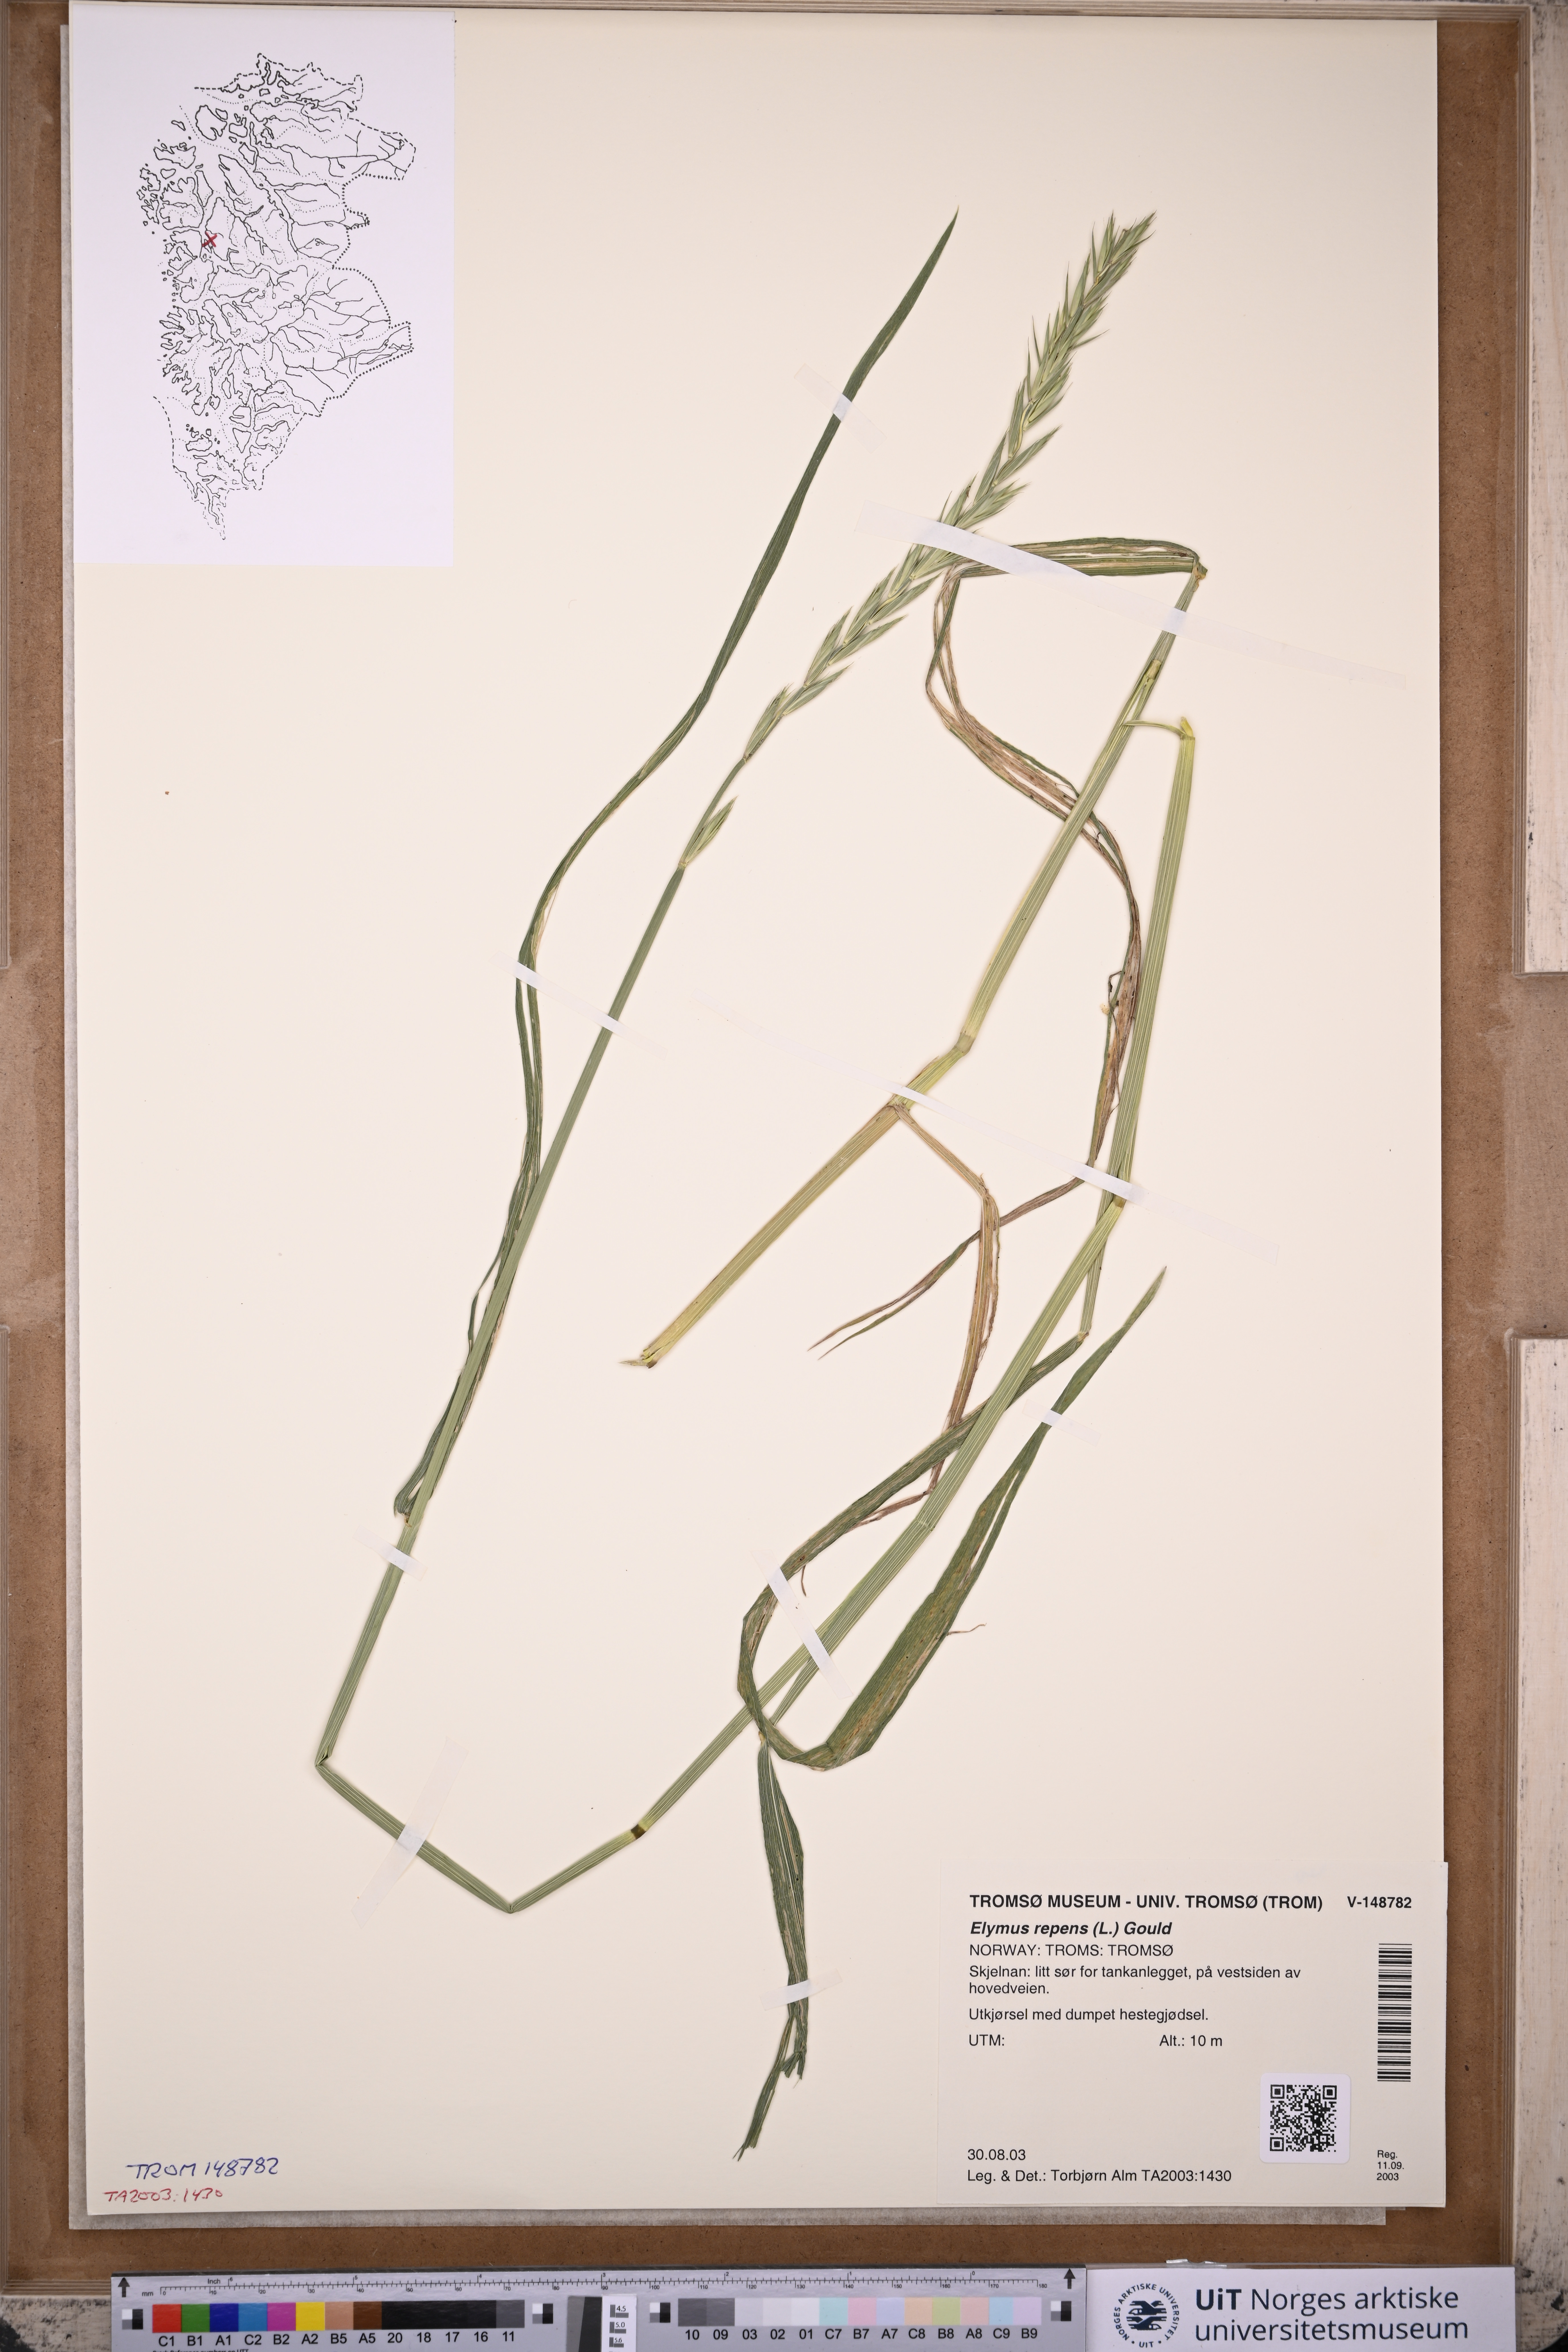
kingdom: Plantae
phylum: Tracheophyta
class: Liliopsida
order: Poales
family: Poaceae
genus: Elymus
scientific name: Elymus repens
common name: Quackgrass
